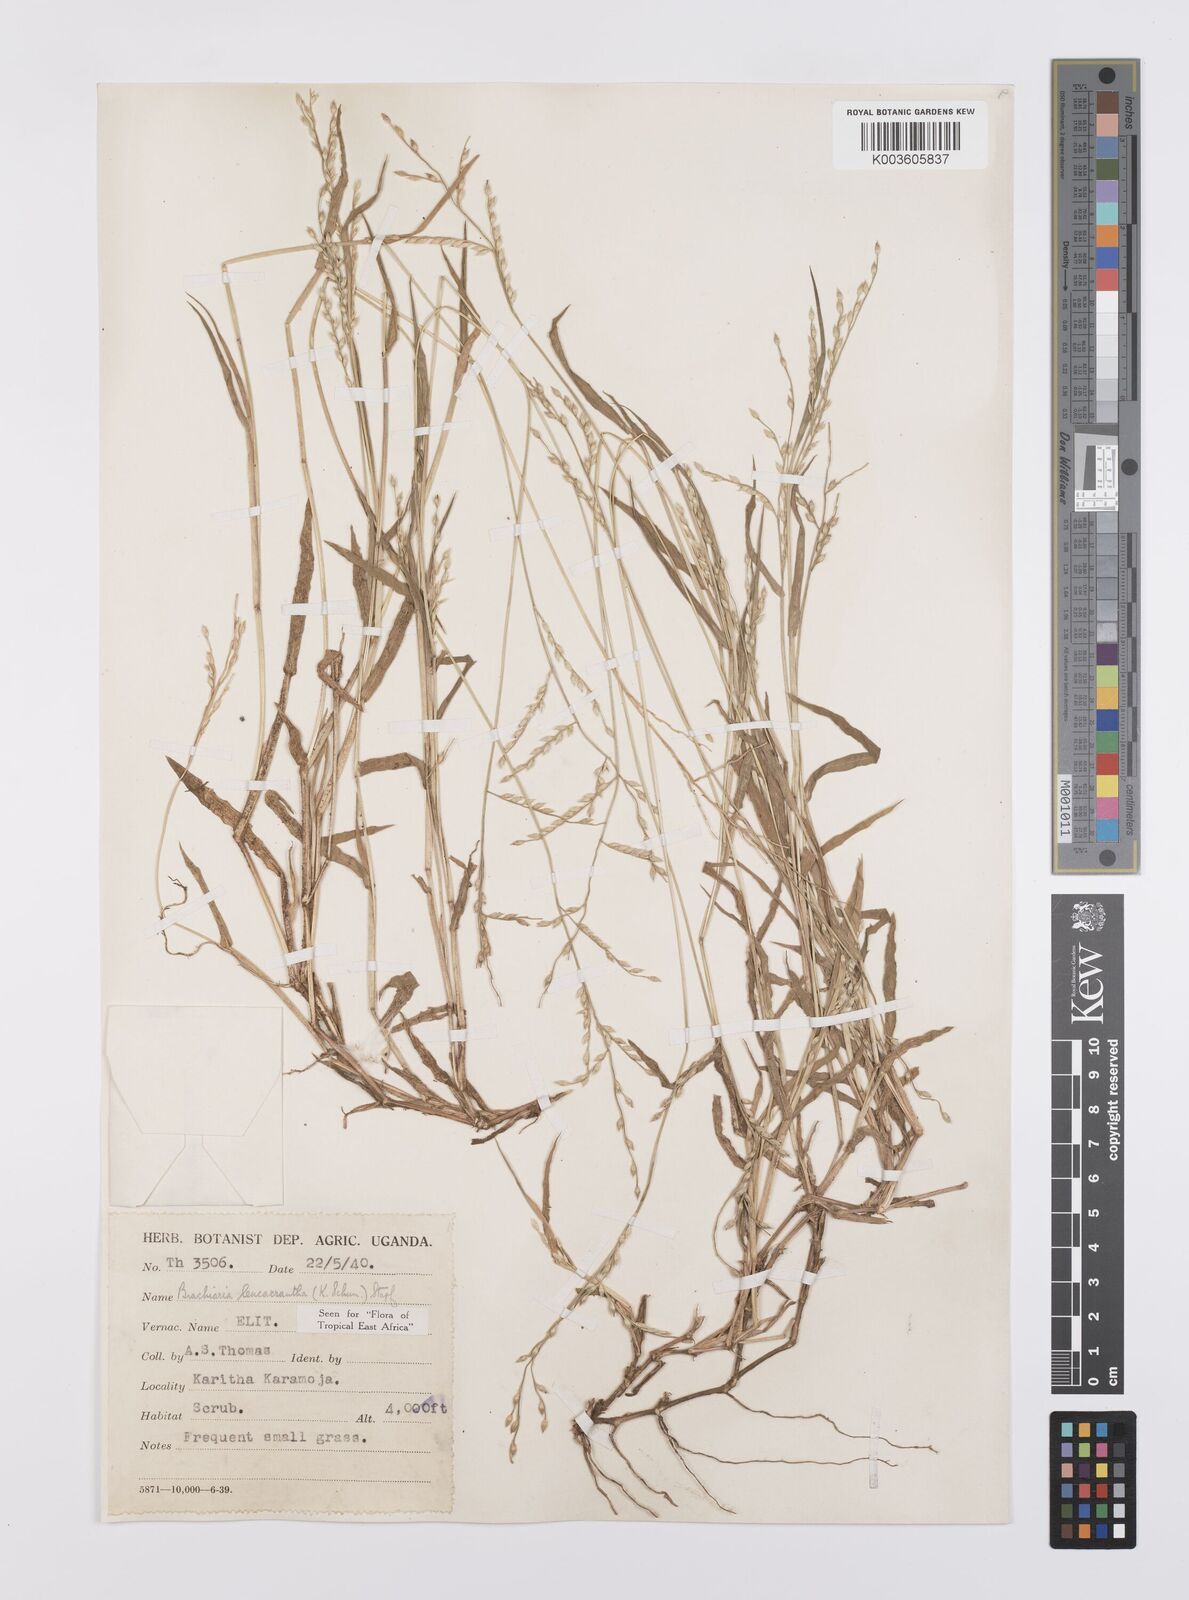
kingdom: Plantae
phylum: Tracheophyta
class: Liliopsida
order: Poales
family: Poaceae
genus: Urochloa
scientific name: Urochloa xantholeuca
